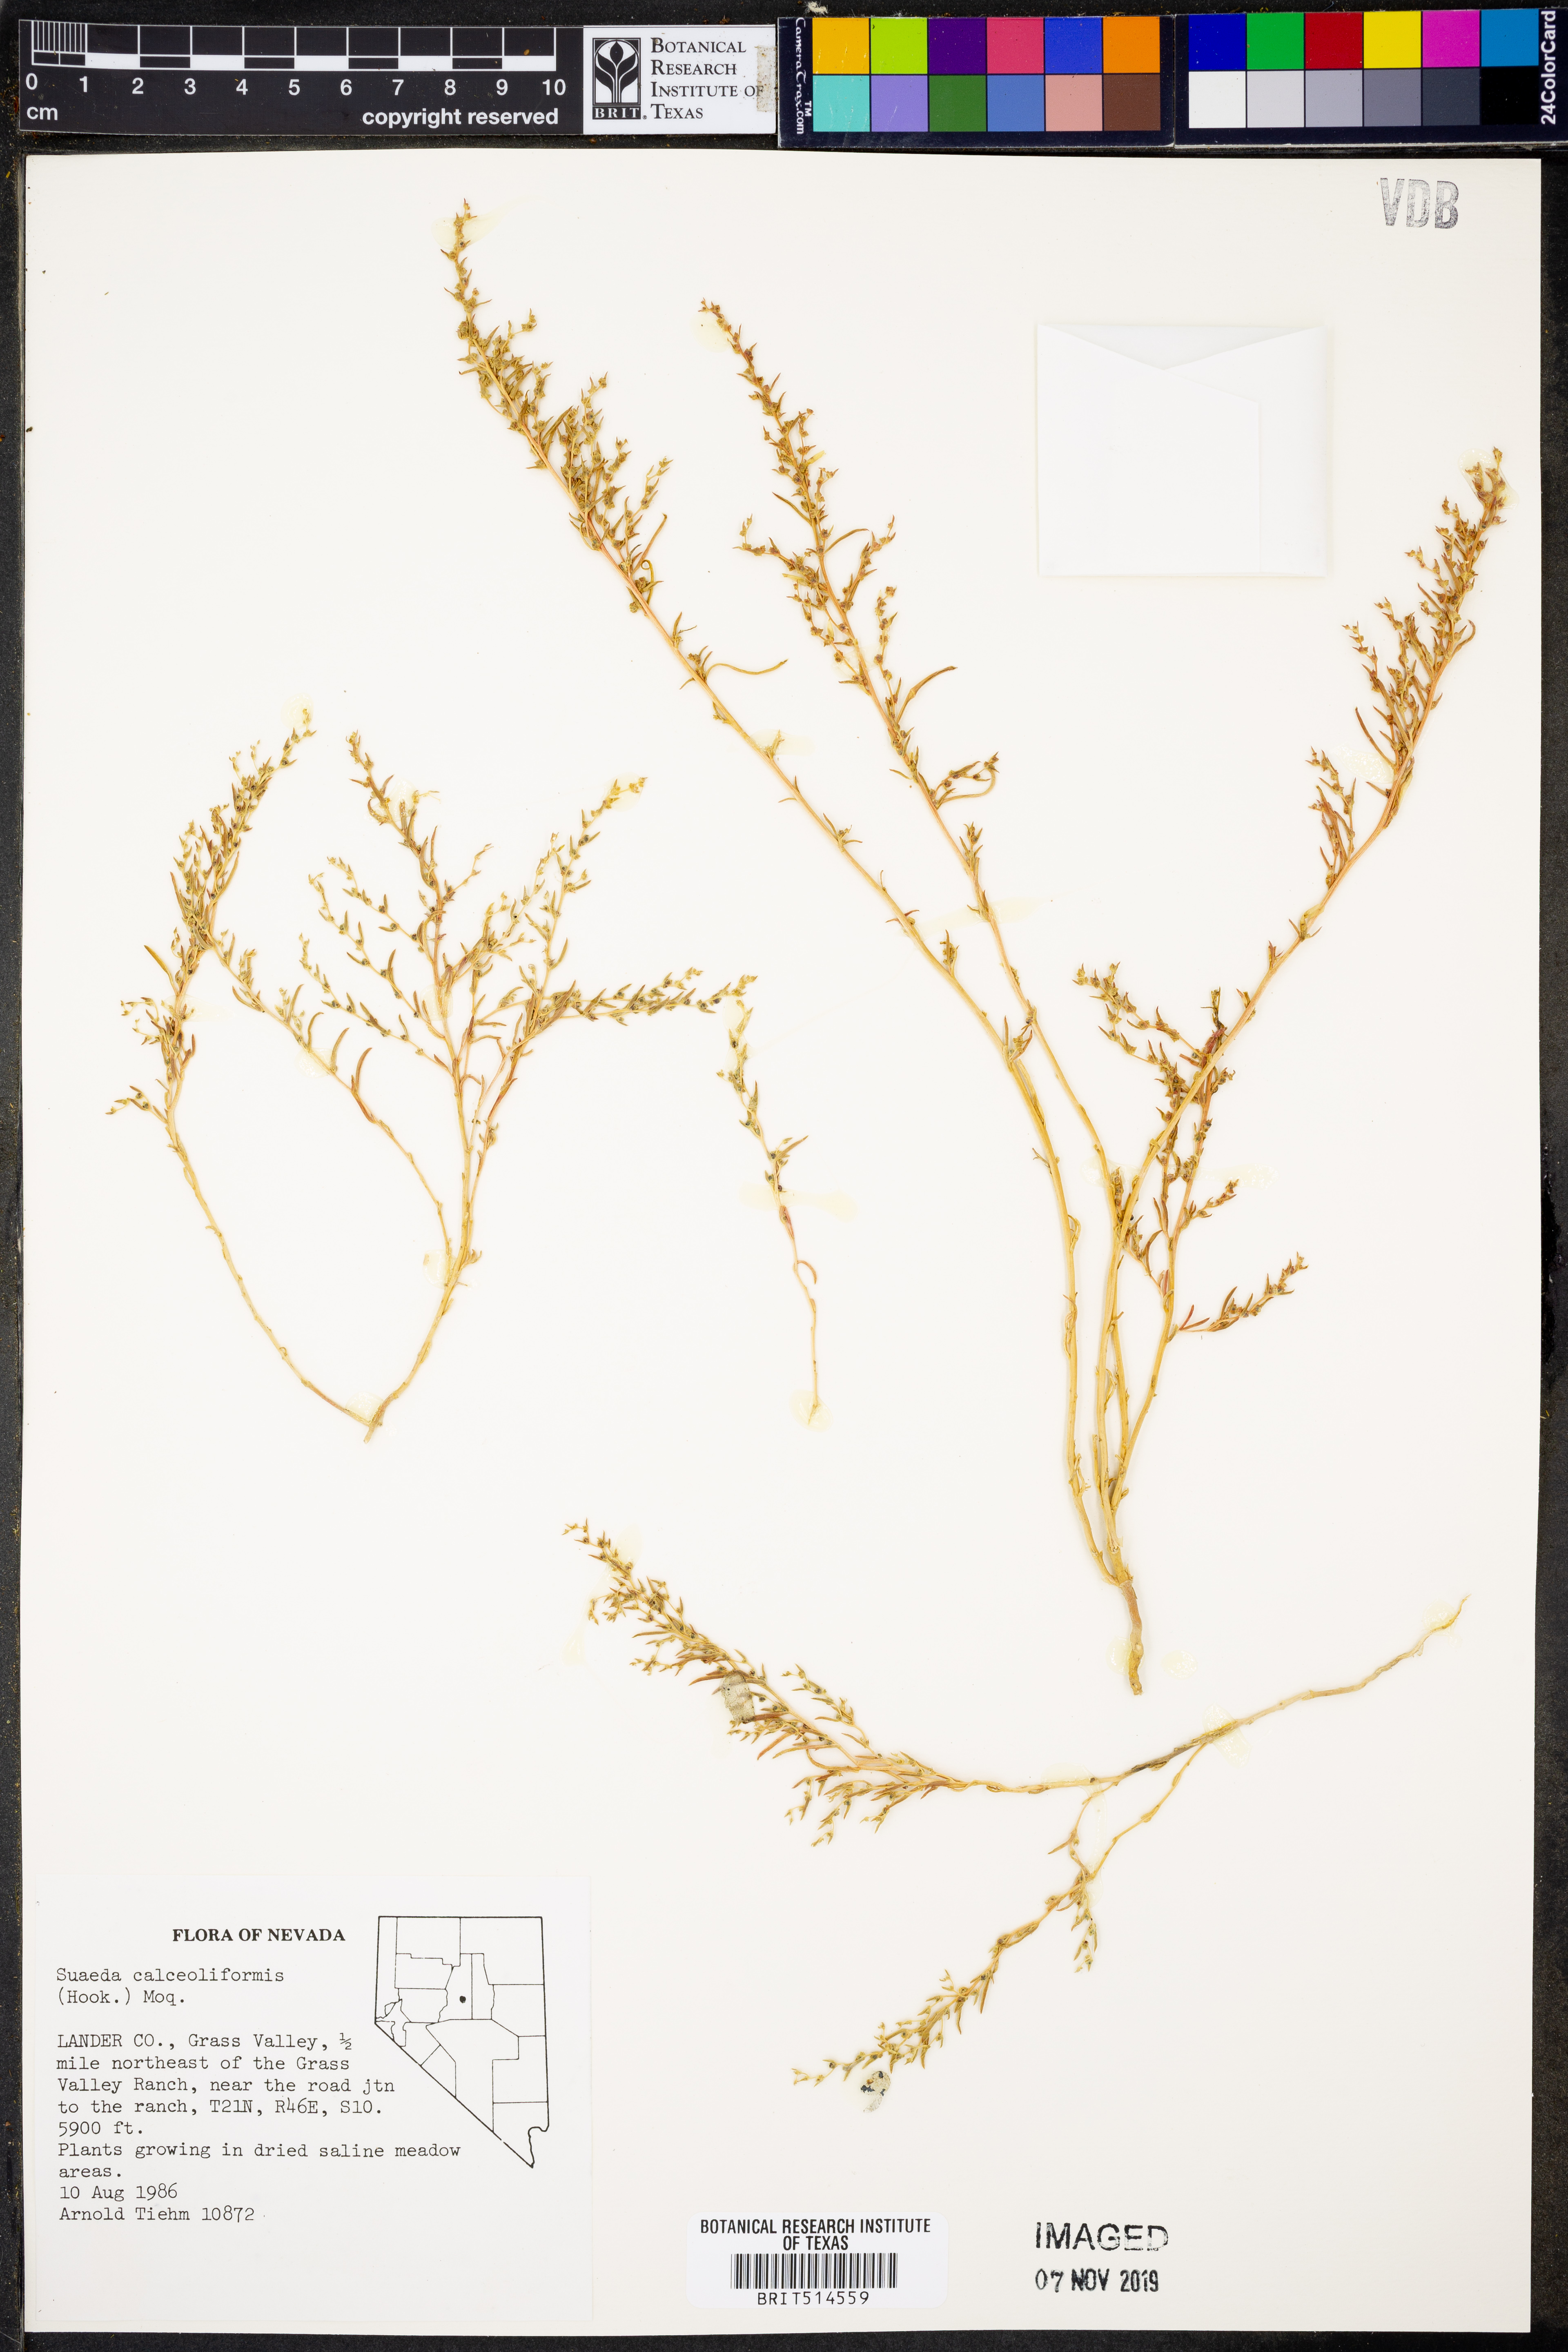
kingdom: Plantae
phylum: Tracheophyta
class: Magnoliopsida
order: Caryophyllales
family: Amaranthaceae
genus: Suaeda
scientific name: Suaeda calceoliformis
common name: Pursh's seepweed
